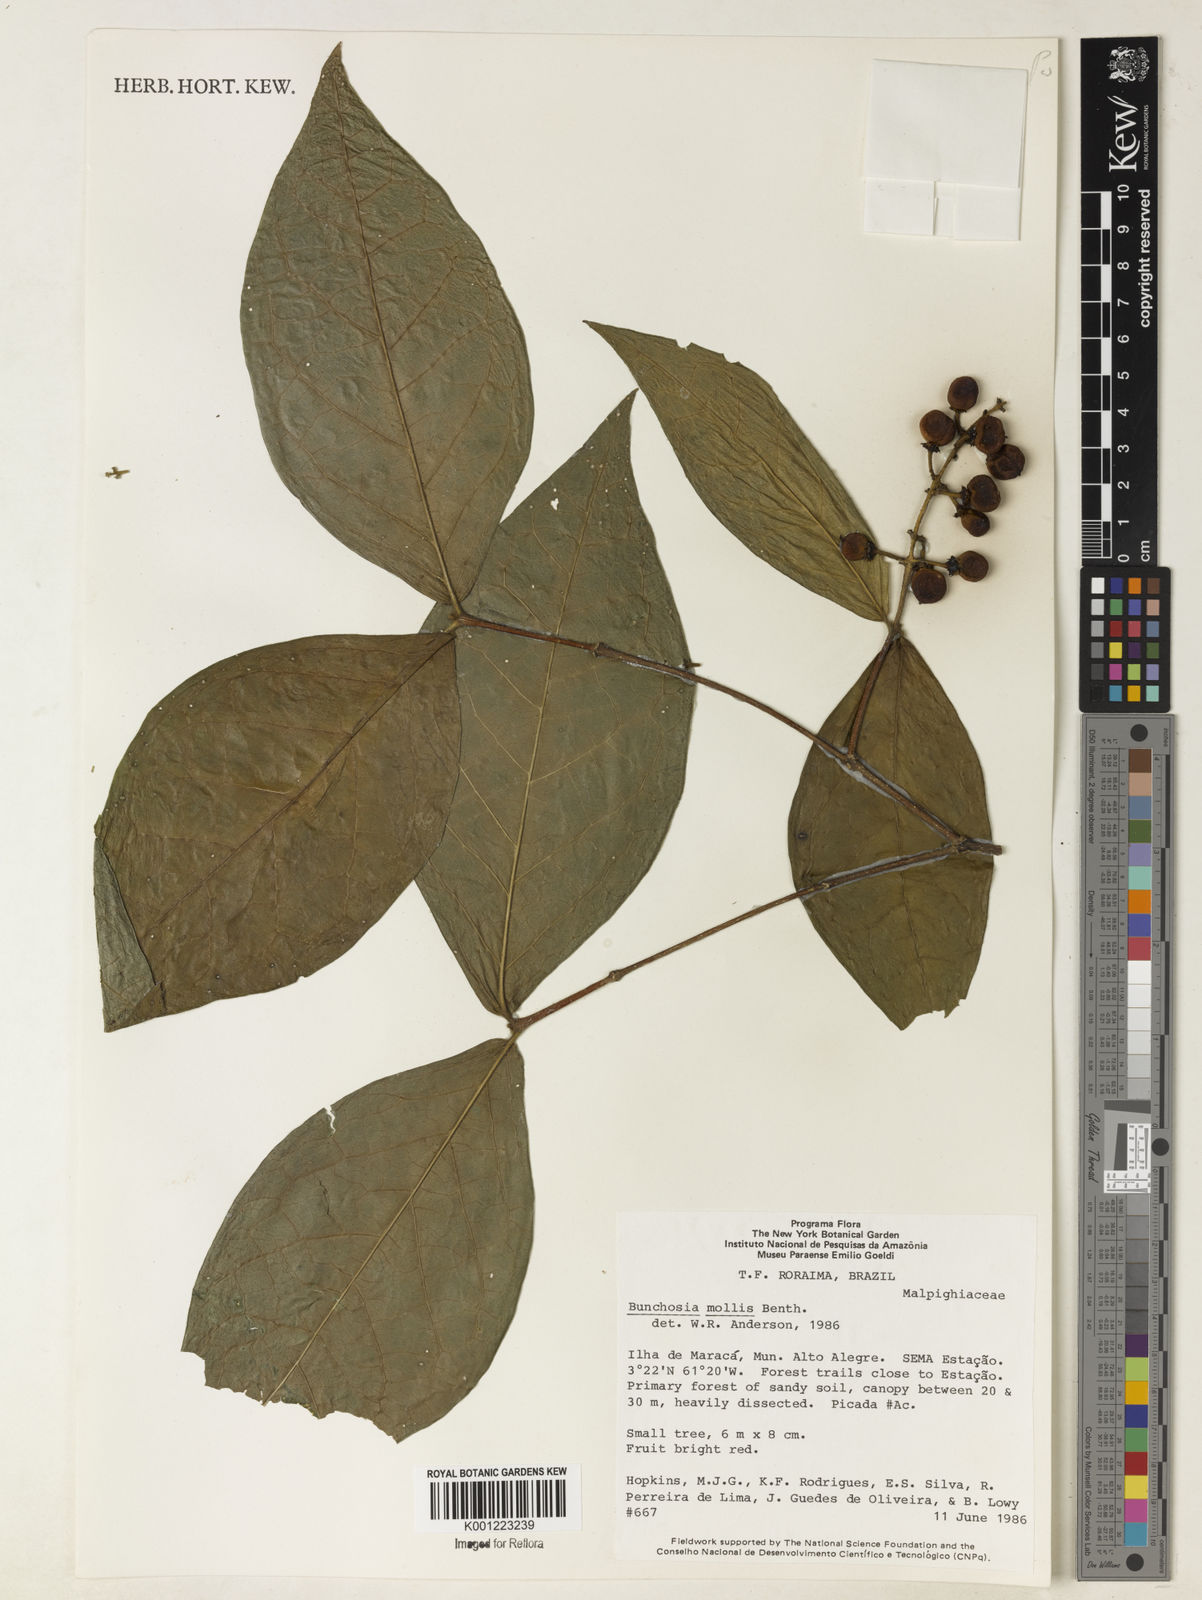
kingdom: Plantae
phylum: Tracheophyta
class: Magnoliopsida
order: Malpighiales
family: Malpighiaceae
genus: Bunchosia
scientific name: Bunchosia mollis
